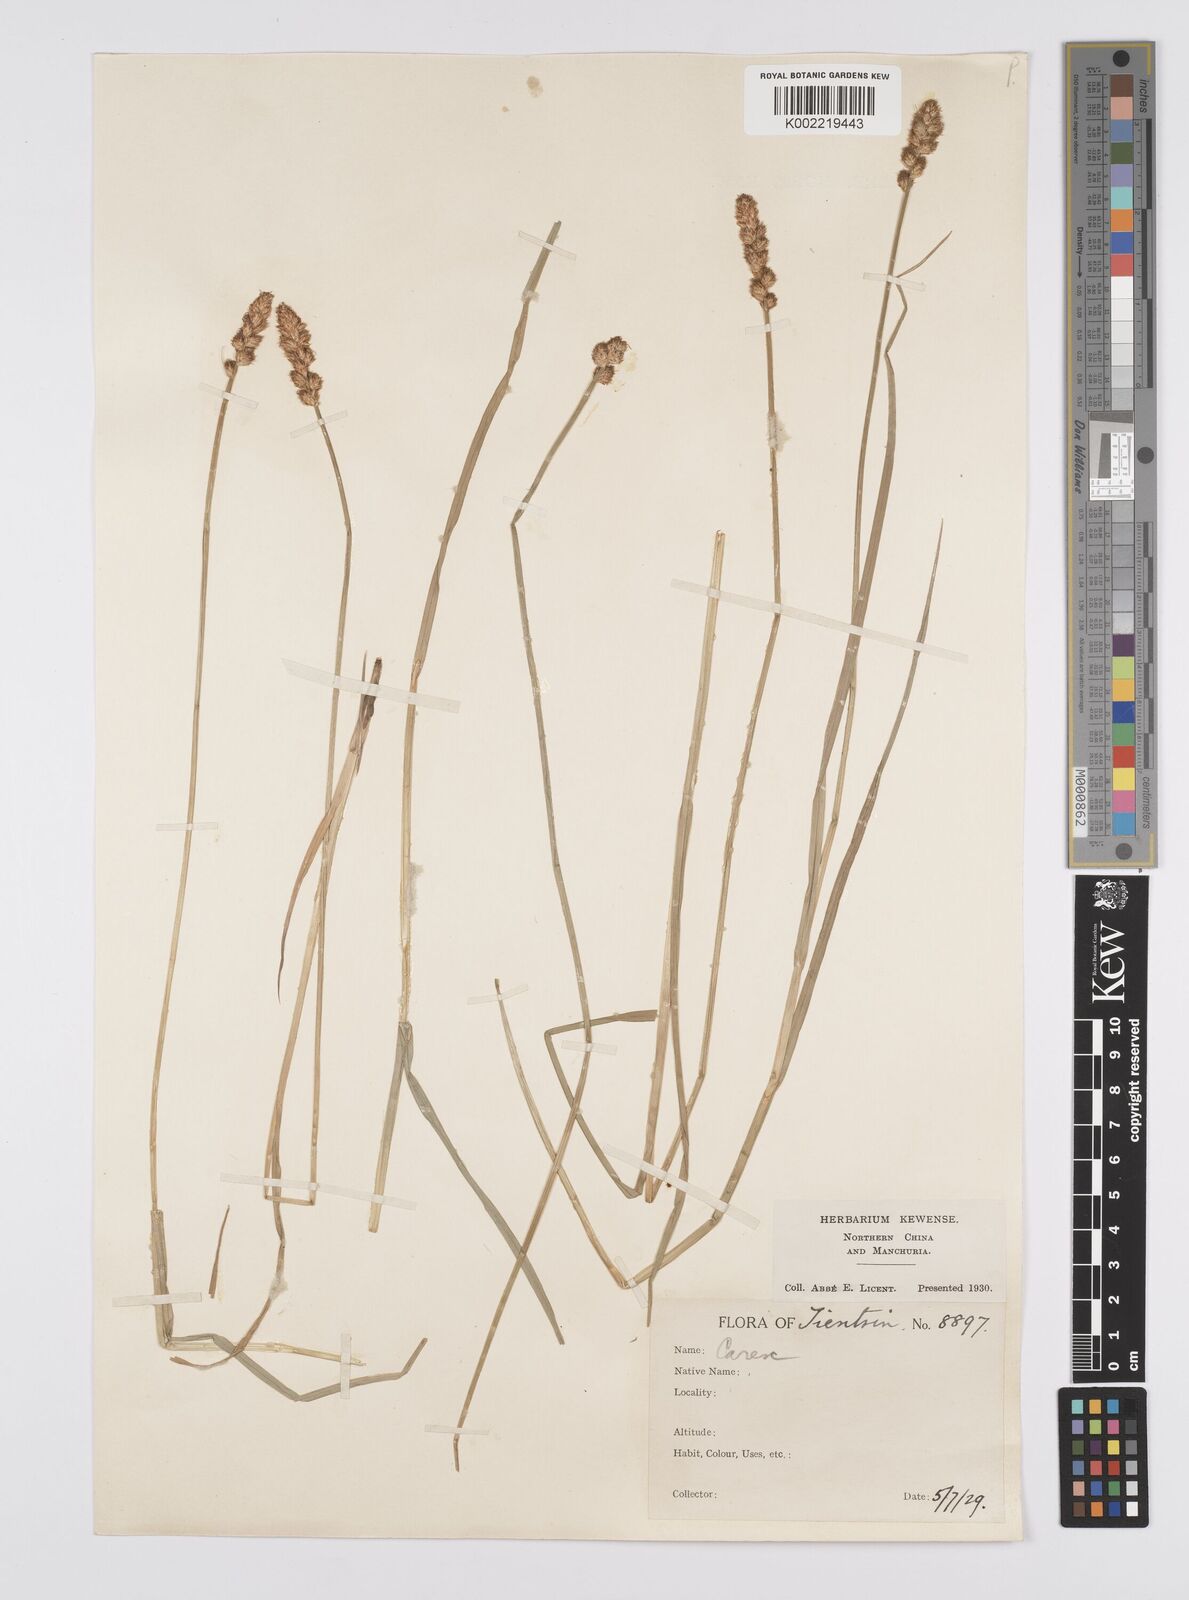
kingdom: Plantae
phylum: Tracheophyta
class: Liliopsida
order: Poales
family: Cyperaceae
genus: Carex
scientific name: Carex disticha
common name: Brown sedge
